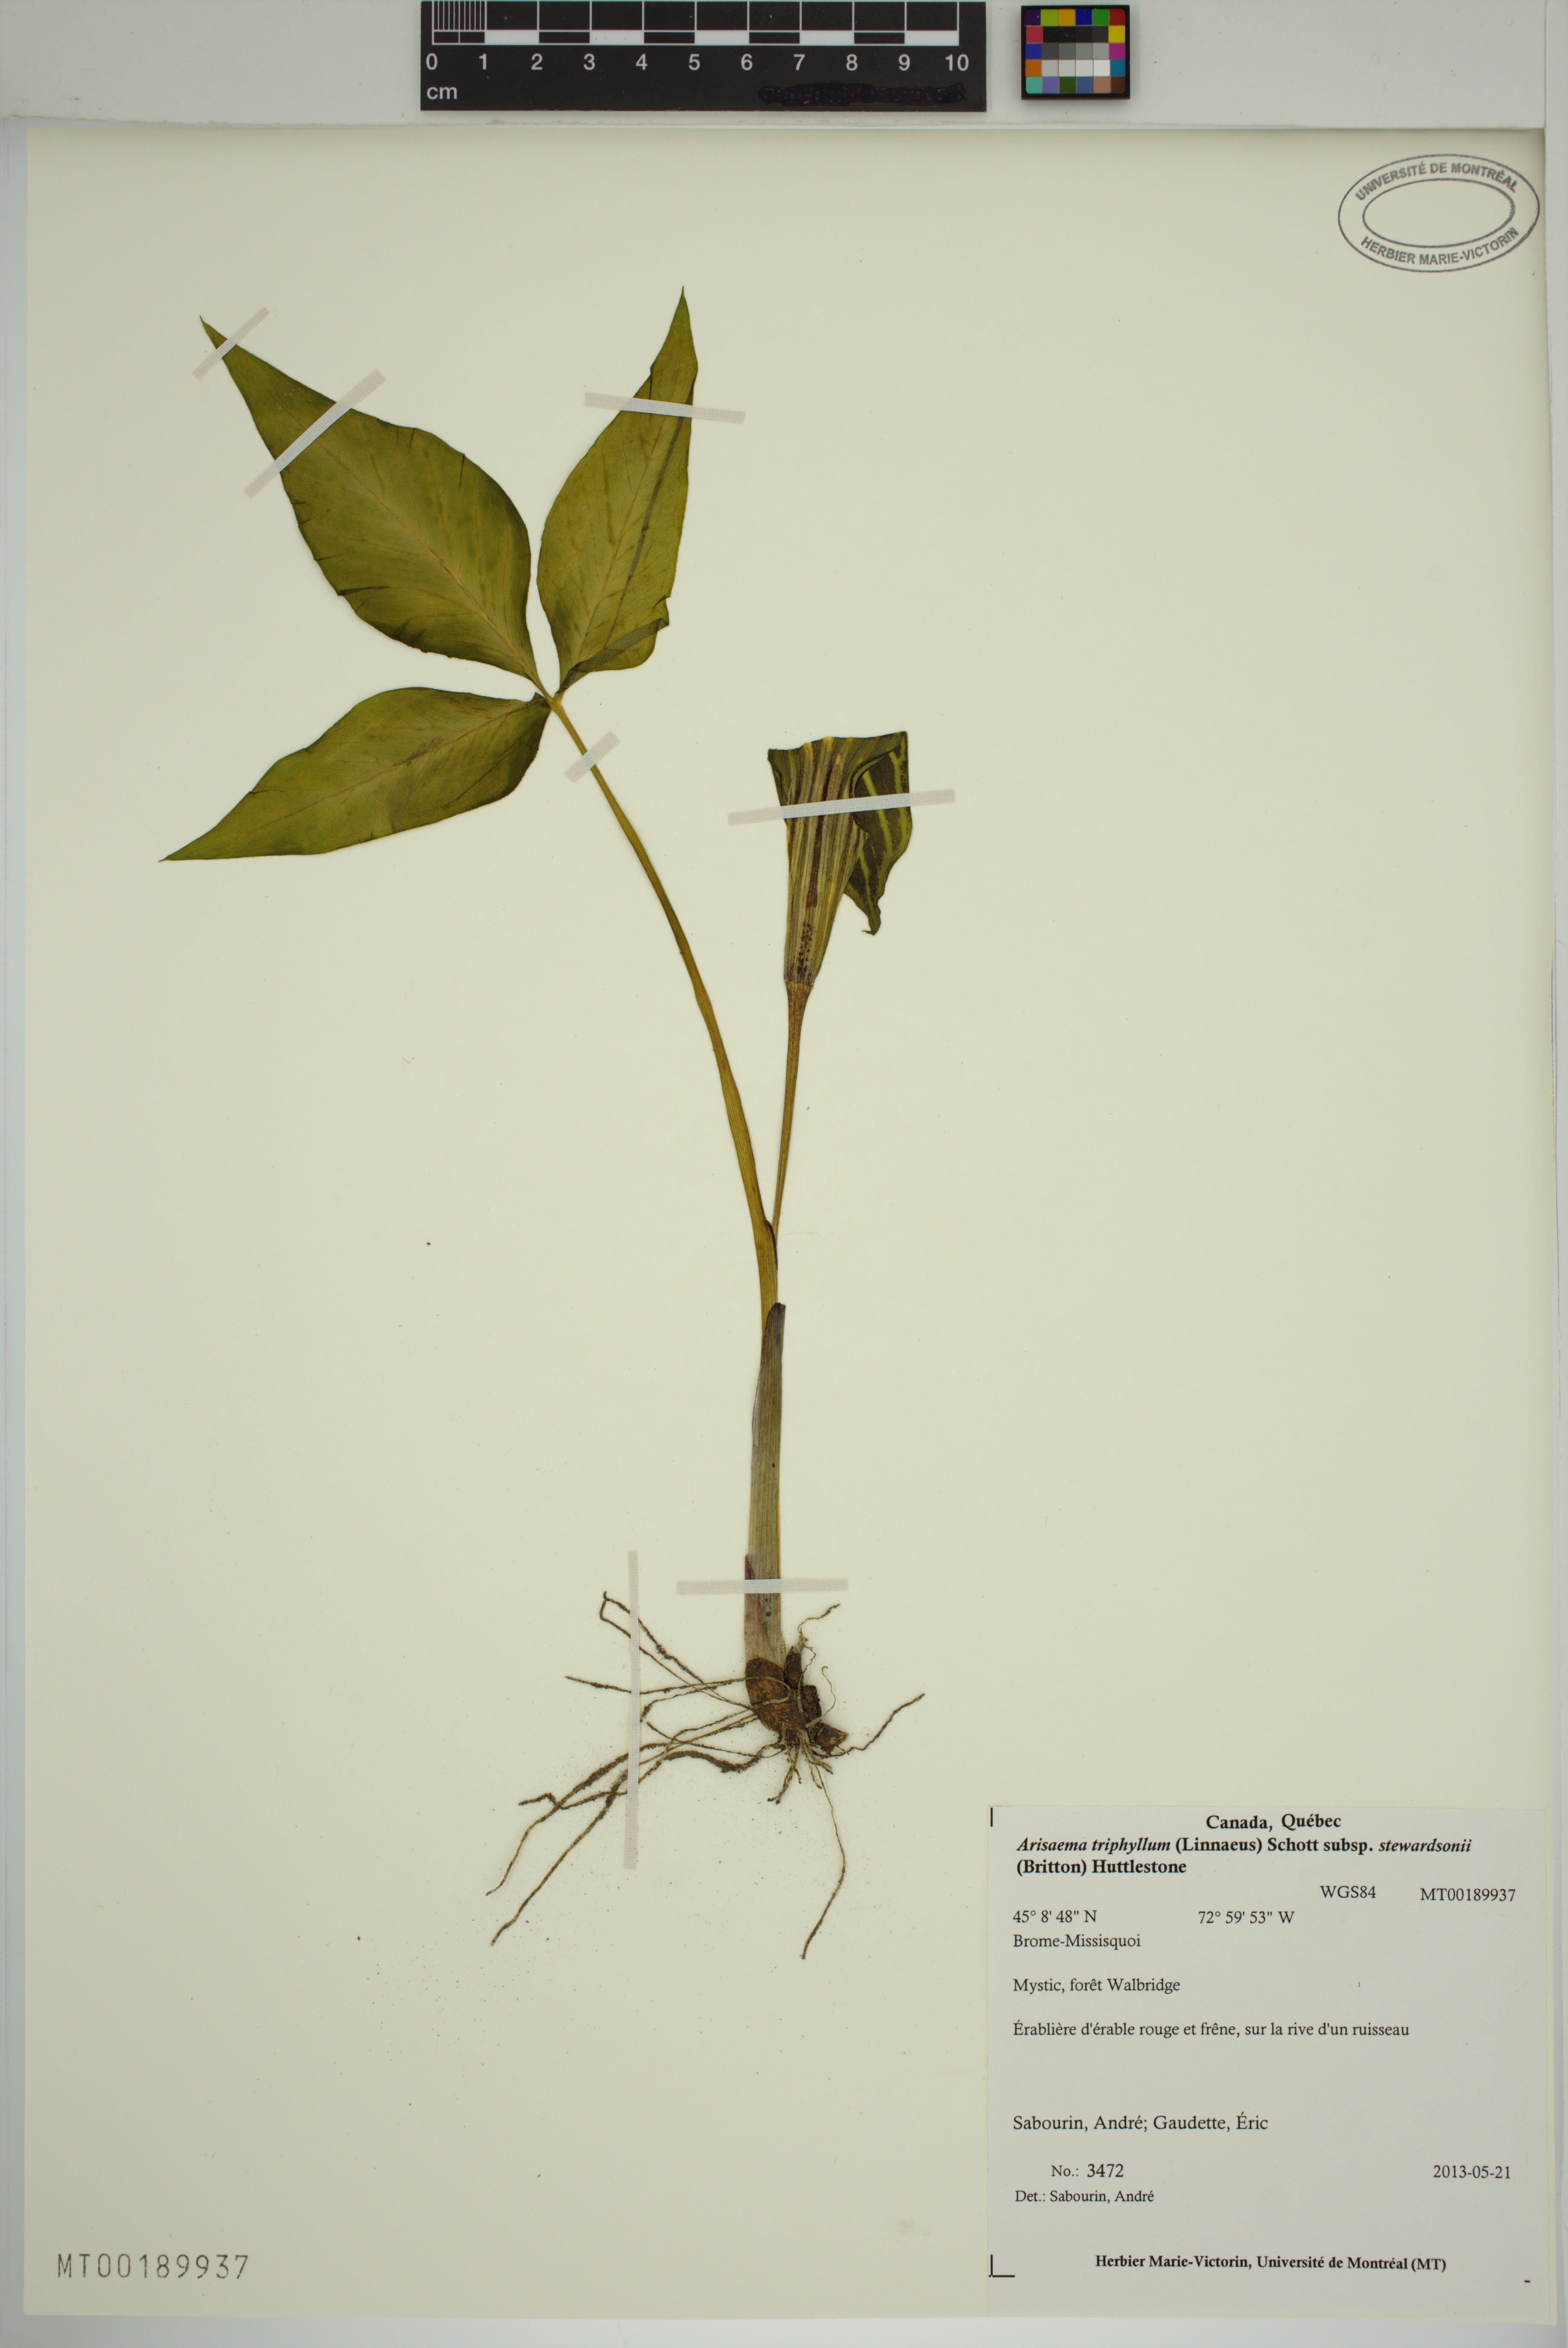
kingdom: Plantae
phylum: Tracheophyta
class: Liliopsida
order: Alismatales
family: Araceae
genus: Arisaema
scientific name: Arisaema stewardsonii
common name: Swamp jack-in-the-pulpit
